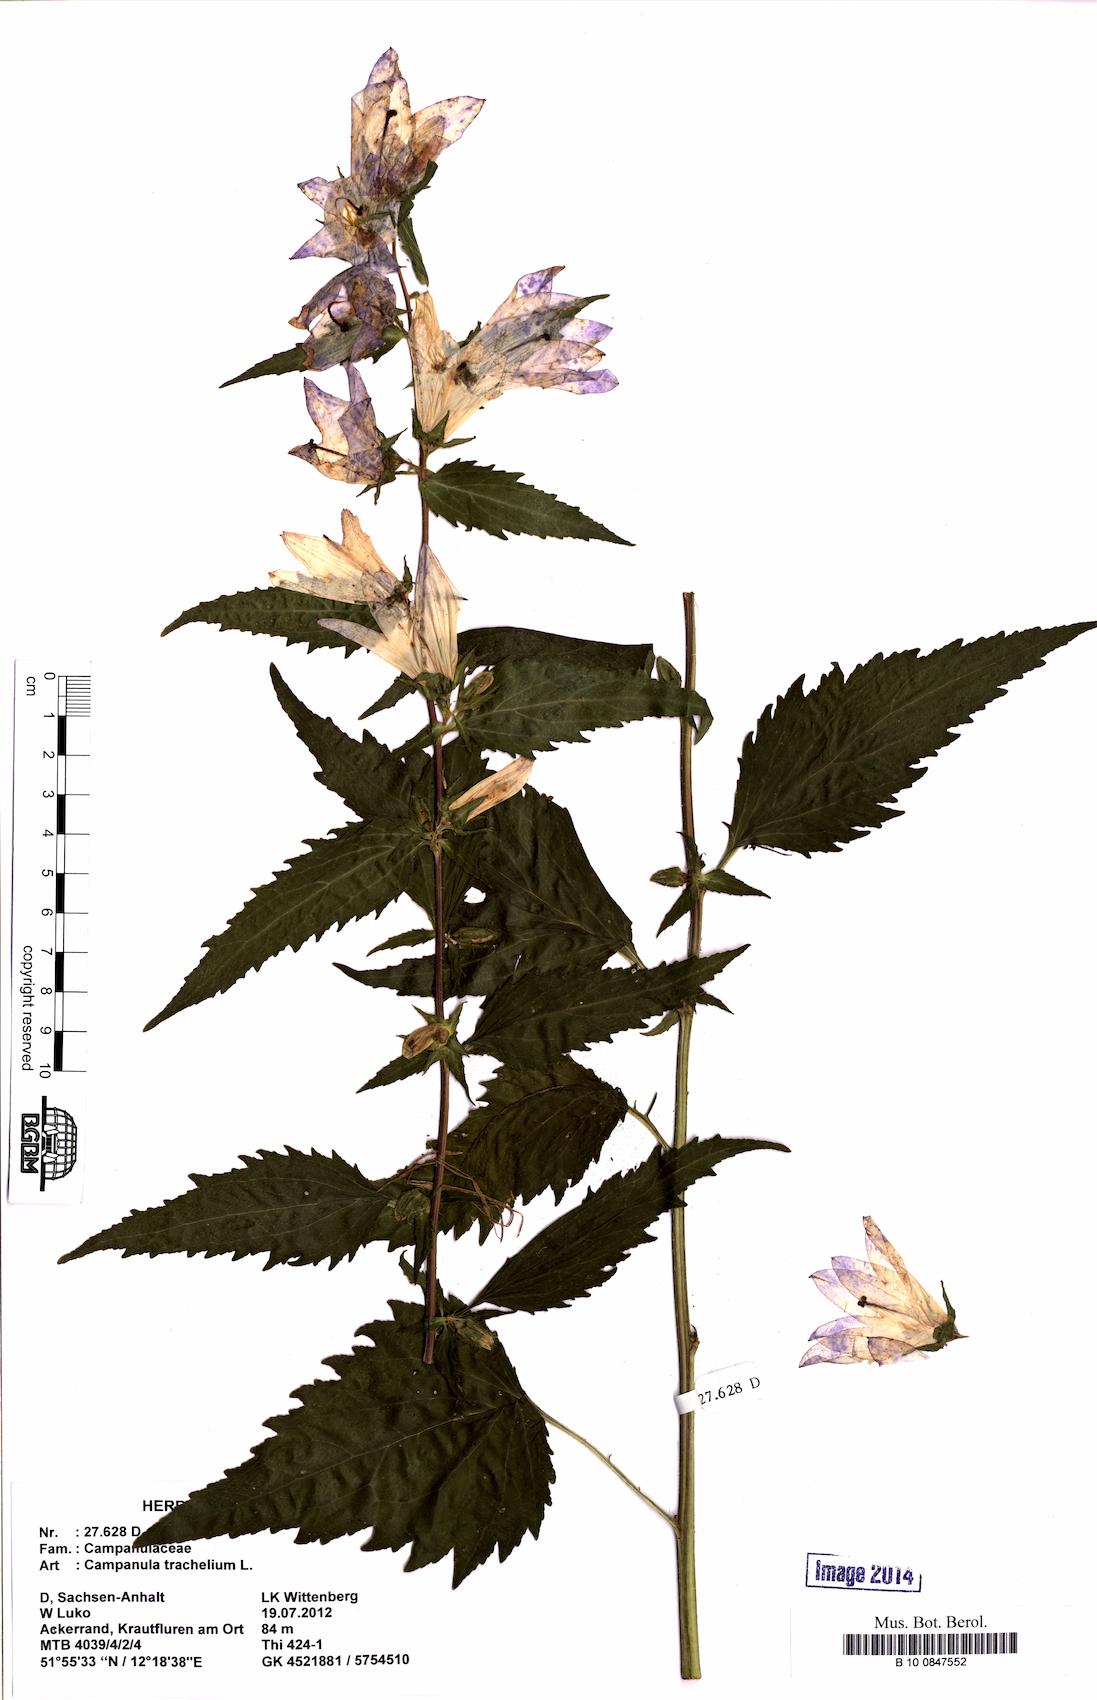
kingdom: Plantae
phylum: Tracheophyta
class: Magnoliopsida
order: Asterales
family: Campanulaceae
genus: Campanula
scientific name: Campanula trachelium
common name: Nettle-leaved bellflower
